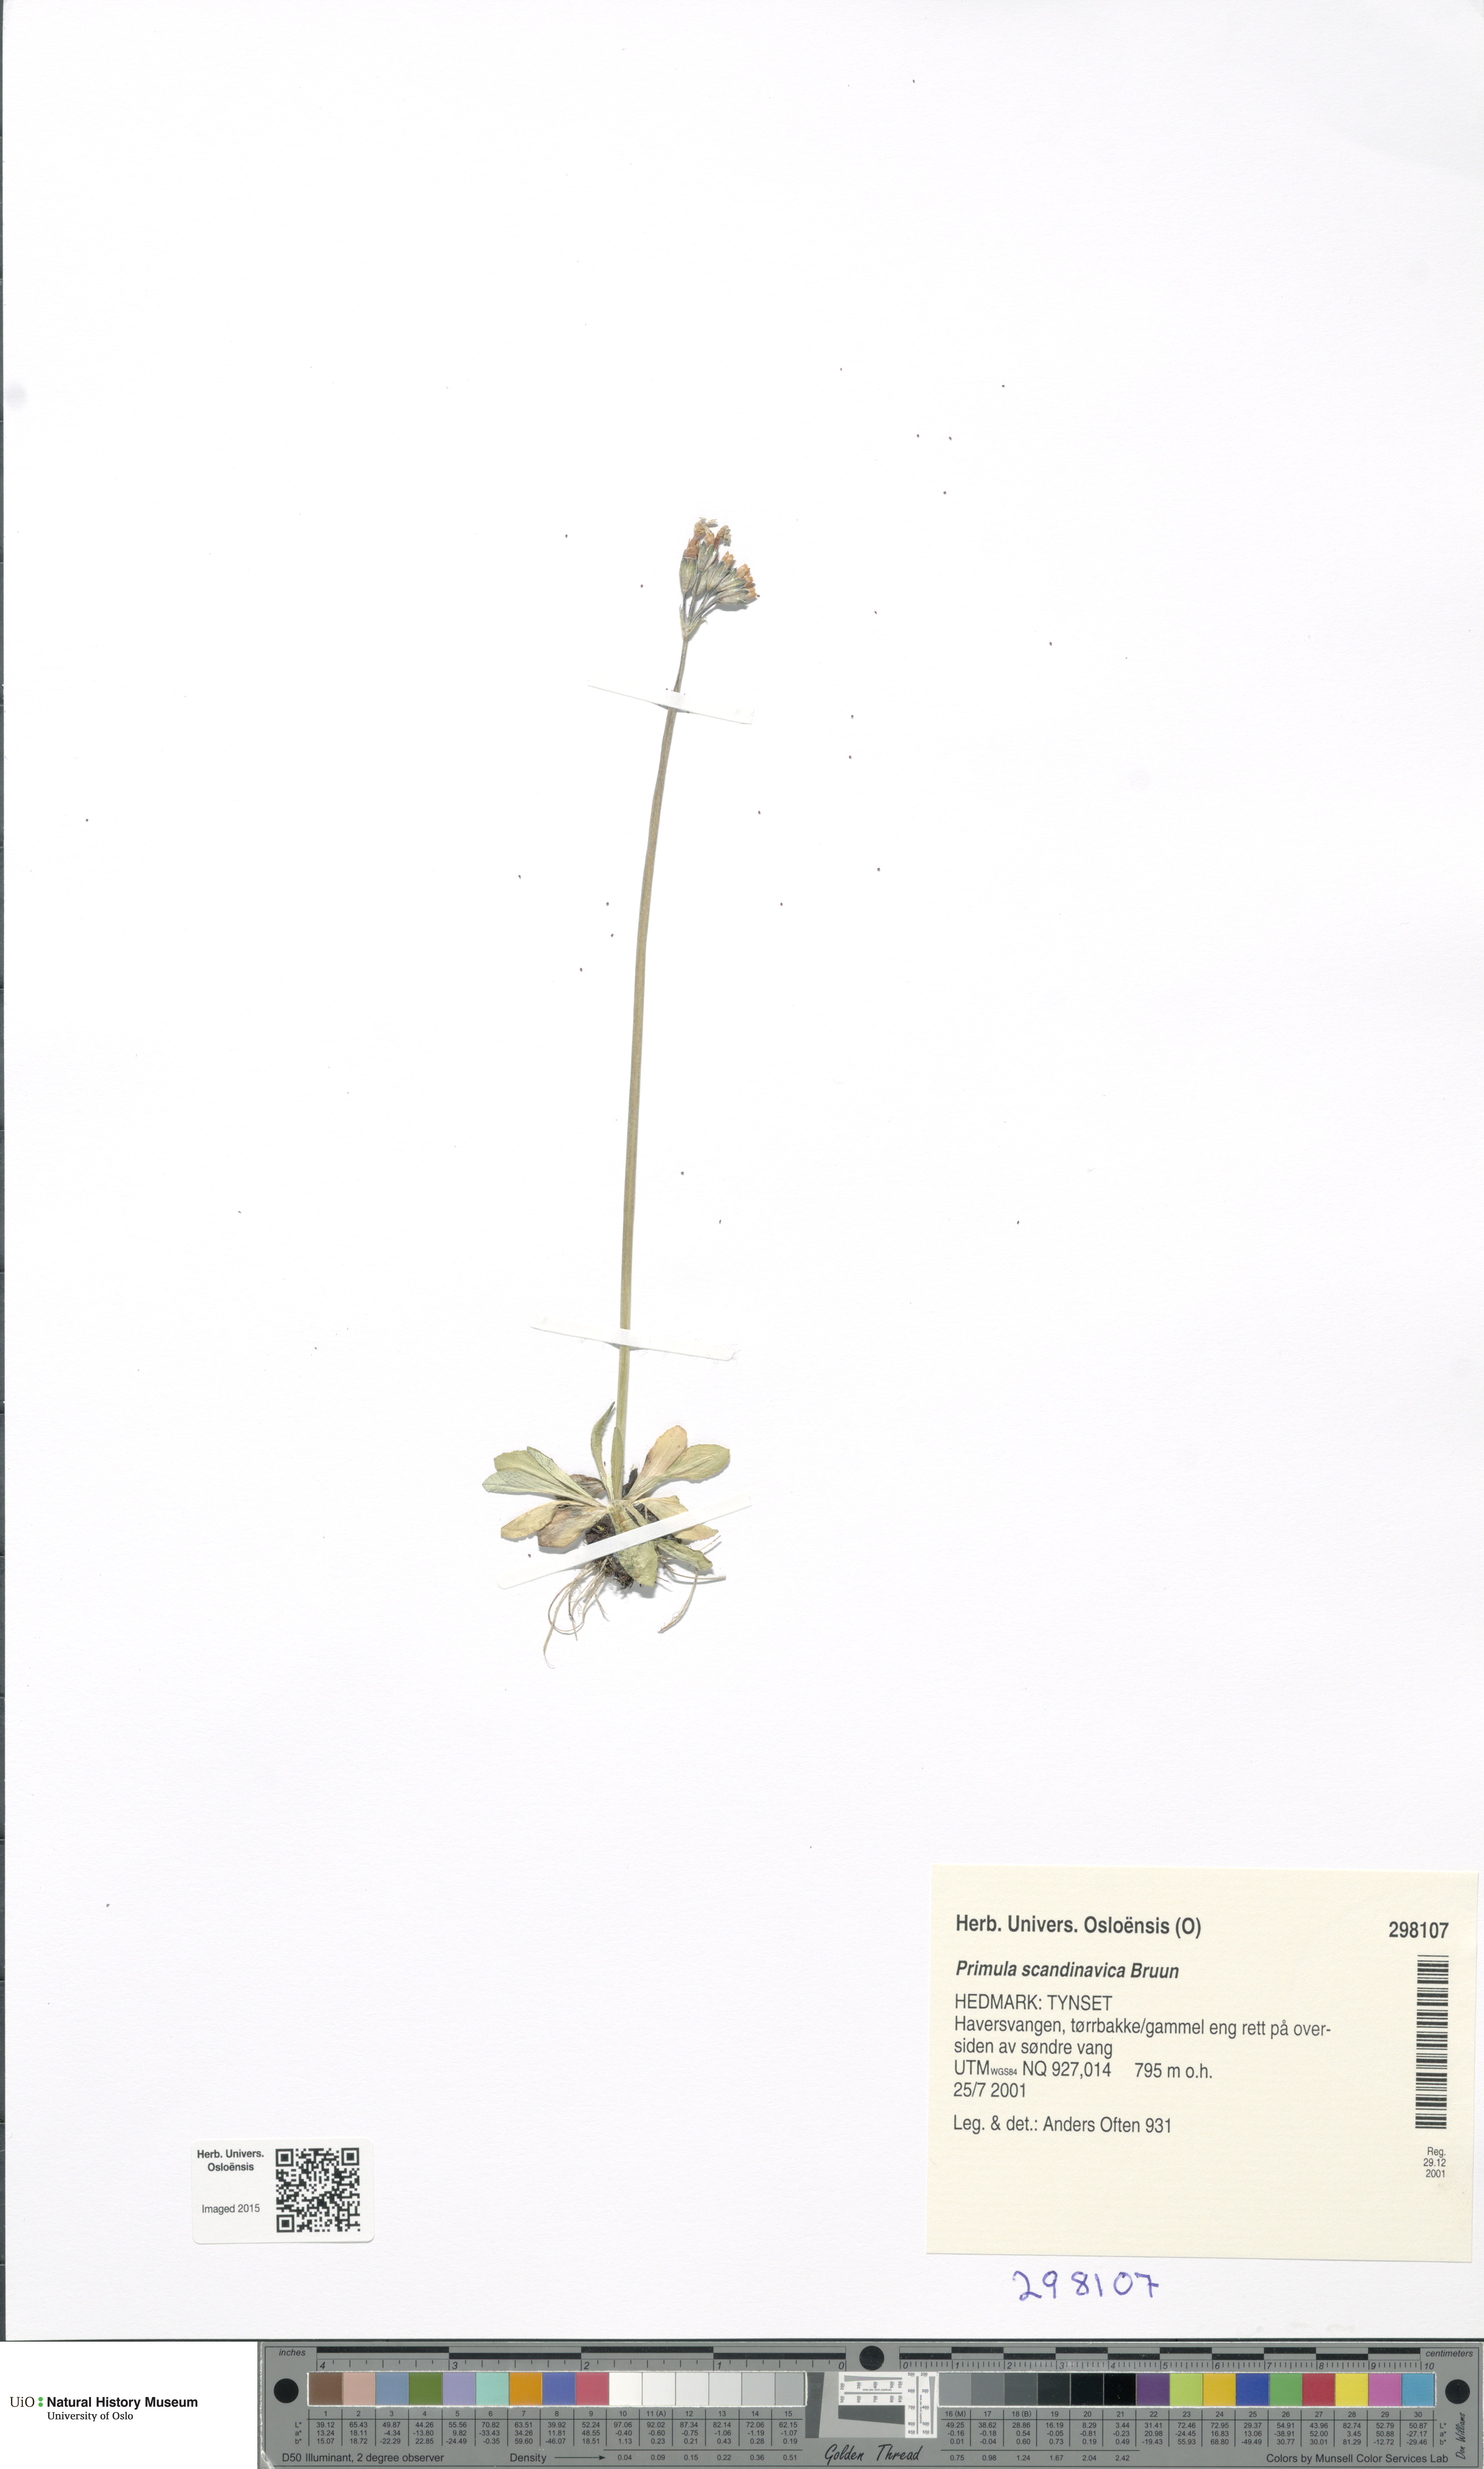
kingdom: Plantae
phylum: Tracheophyta
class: Magnoliopsida
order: Ericales
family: Primulaceae
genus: Primula
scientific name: Primula scandinavica
